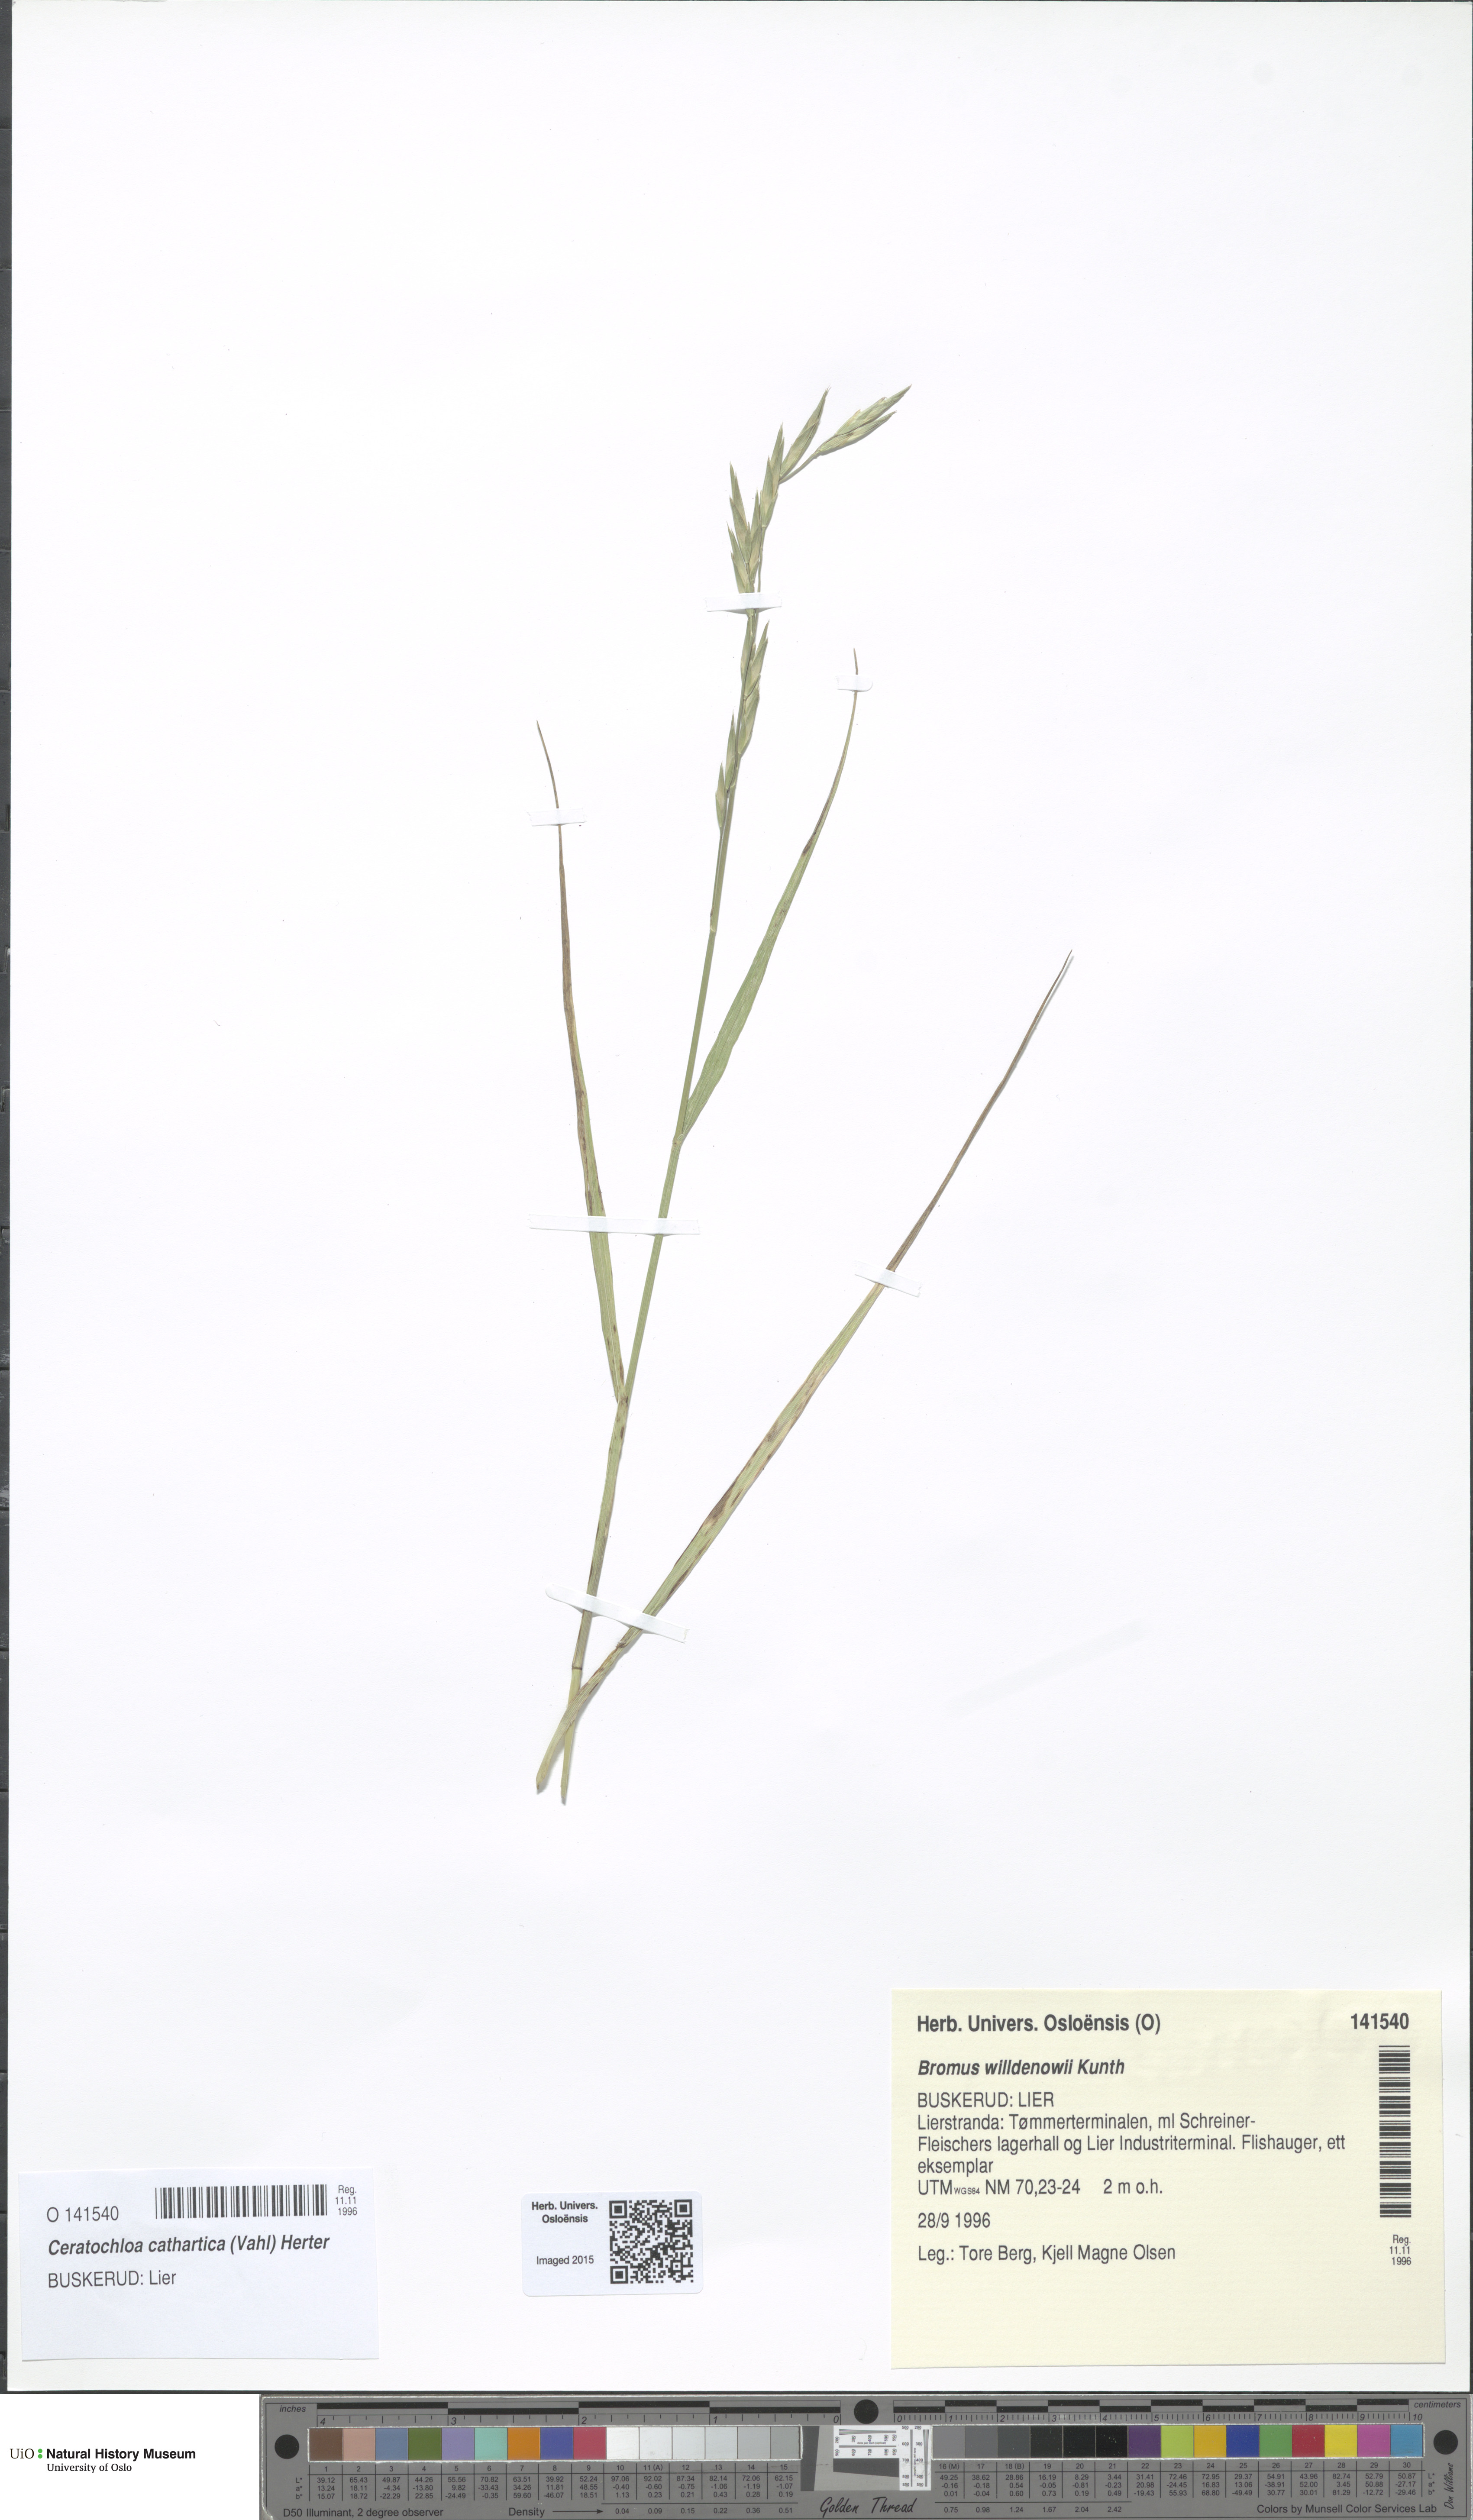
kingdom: Plantae
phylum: Tracheophyta
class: Liliopsida
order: Poales
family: Poaceae
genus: Bromus
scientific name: Bromus catharticus
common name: Rescuegrass
